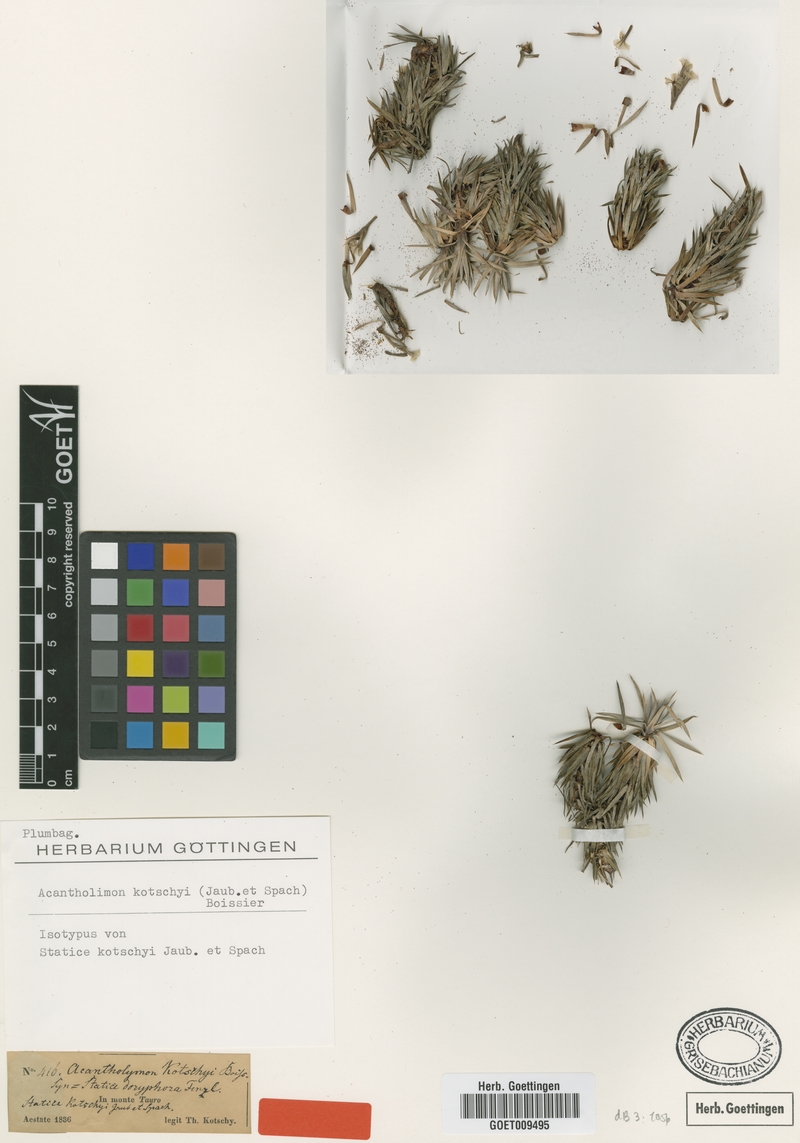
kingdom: Plantae
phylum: Tracheophyta
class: Magnoliopsida
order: Caryophyllales
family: Plumbaginaceae
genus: Acantholimon
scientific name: Acantholimon kotschyi
